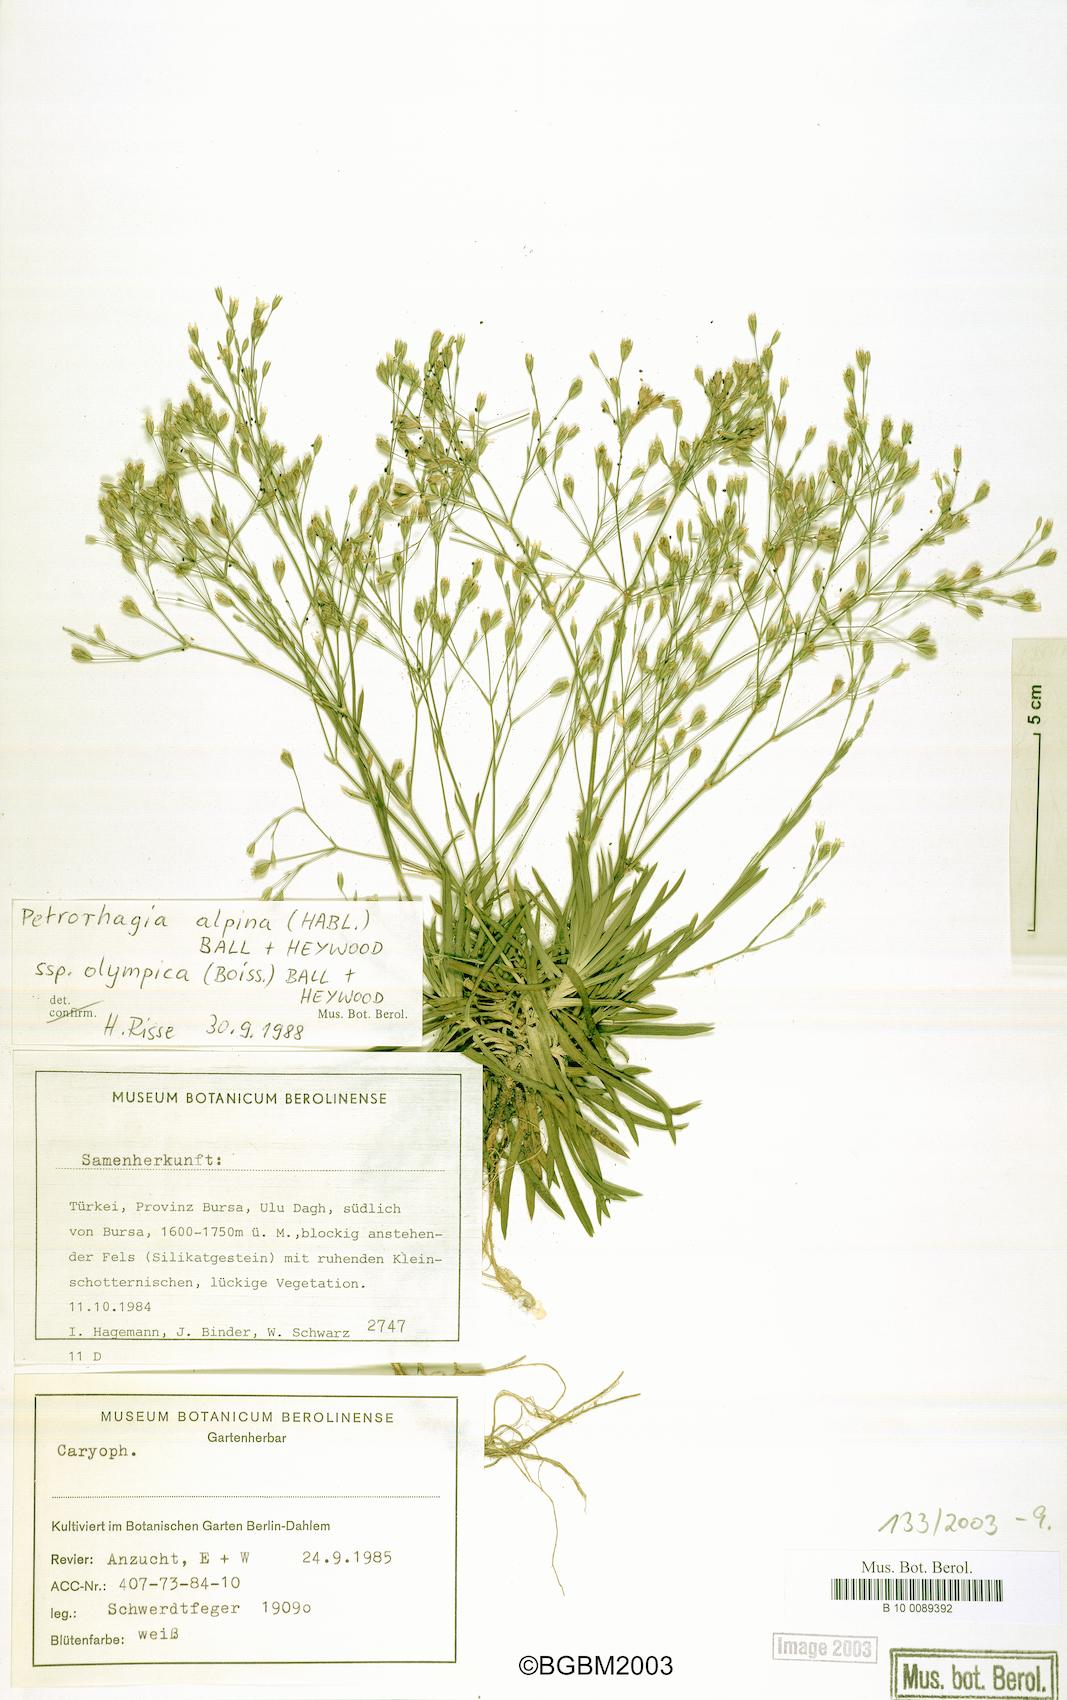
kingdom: Plantae
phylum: Tracheophyta
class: Magnoliopsida
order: Caryophyllales
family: Caryophyllaceae
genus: Petrorhagia
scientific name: Petrorhagia alpina
